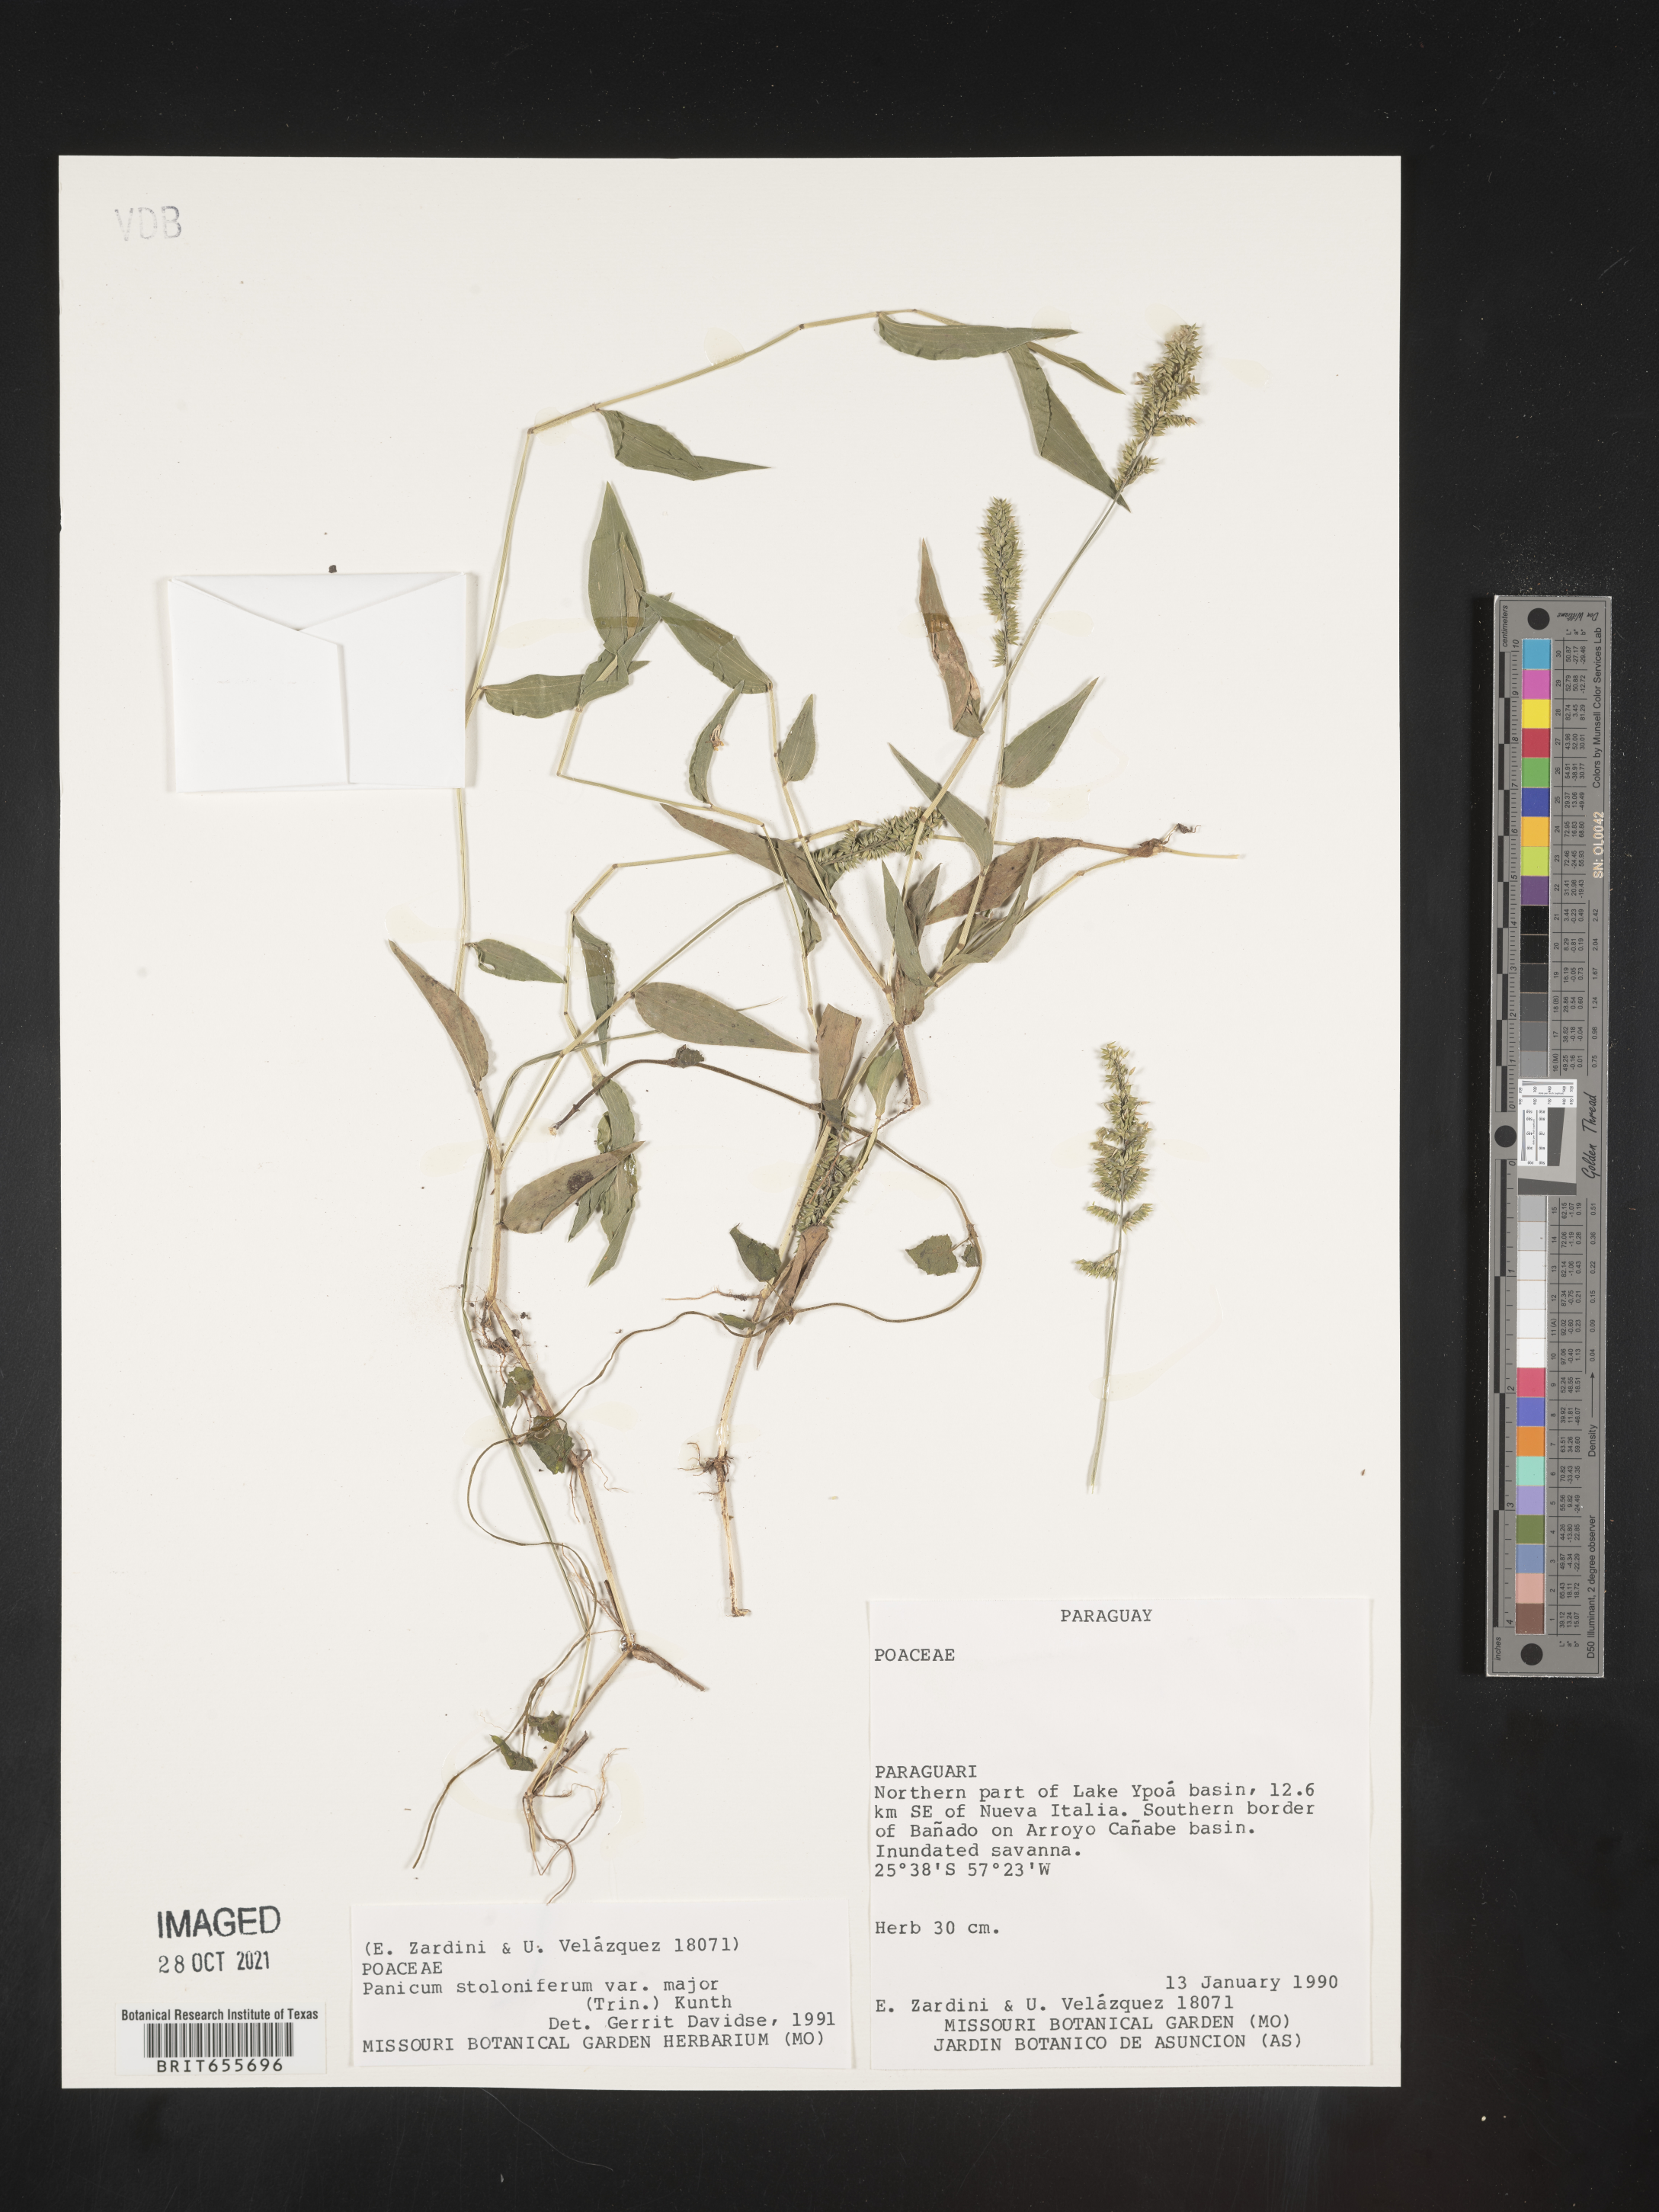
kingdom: Plantae
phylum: Tracheophyta
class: Liliopsida
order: Poales
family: Poaceae
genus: Panicum
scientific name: Panicum
